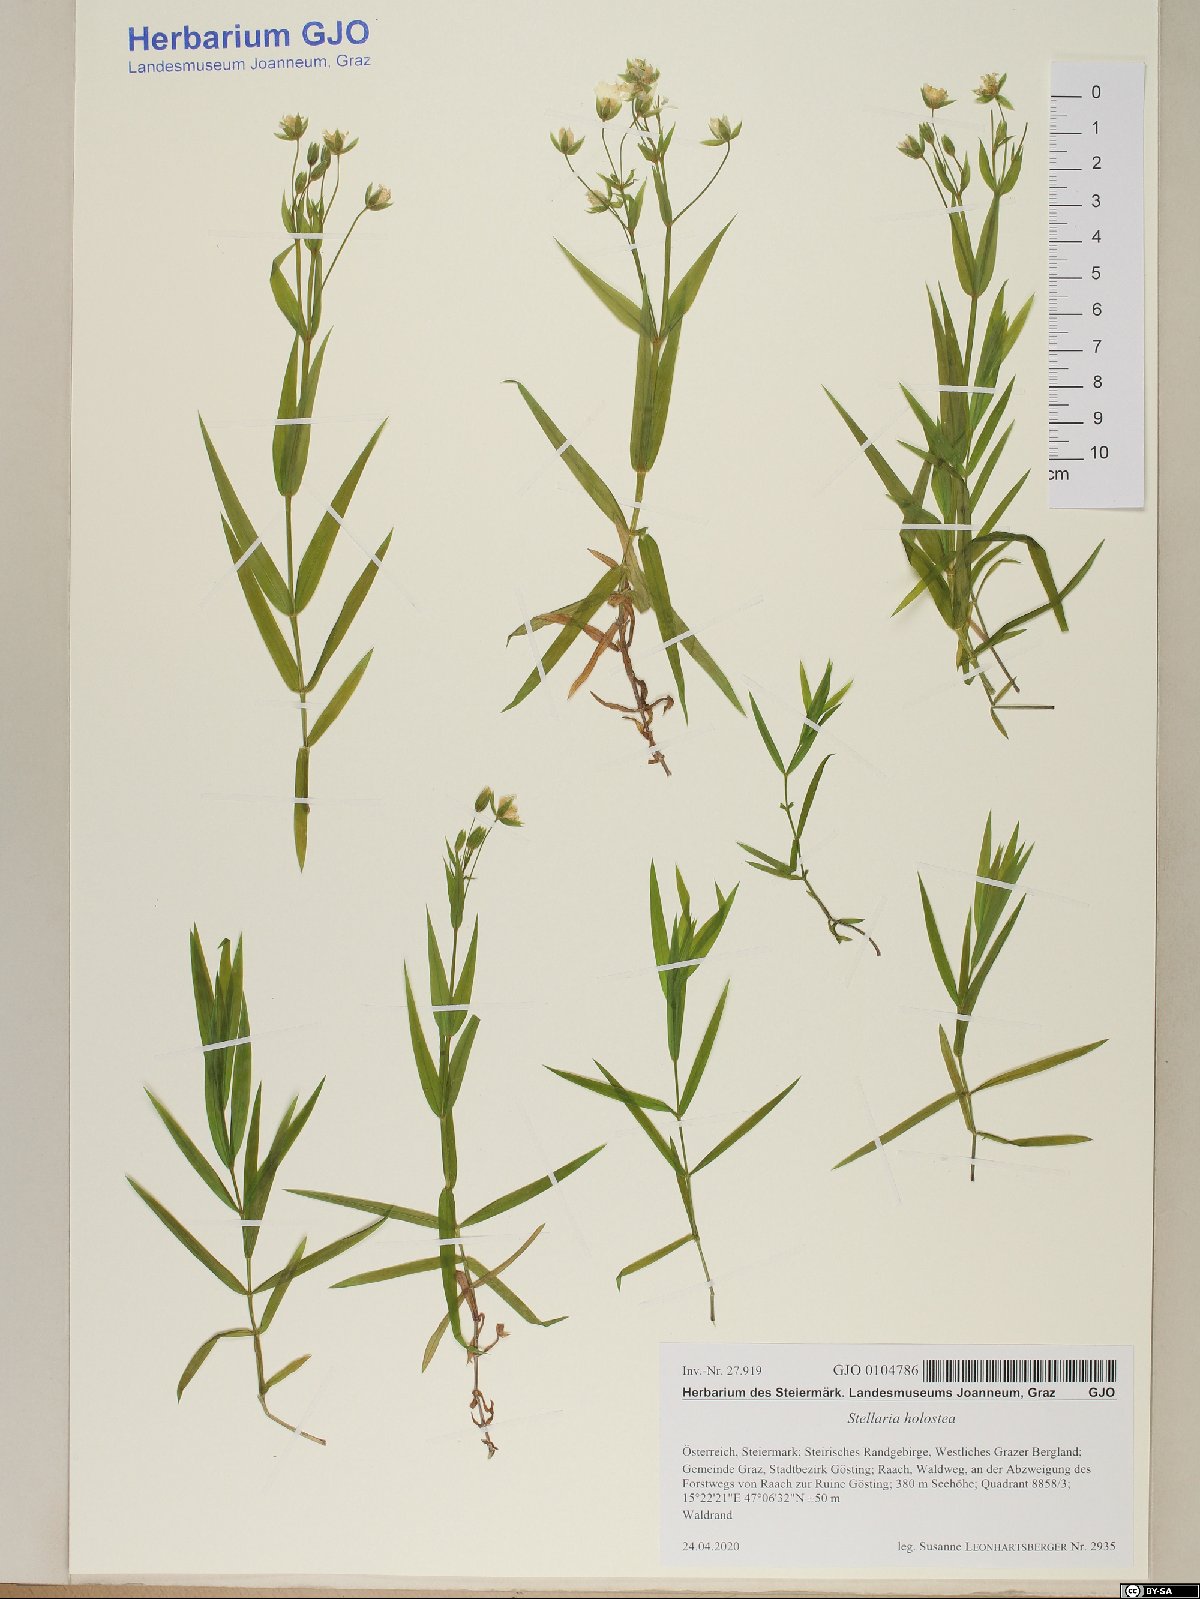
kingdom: Plantae
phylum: Tracheophyta
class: Magnoliopsida
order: Caryophyllales
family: Caryophyllaceae
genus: Rabelera
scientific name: Rabelera holostea
